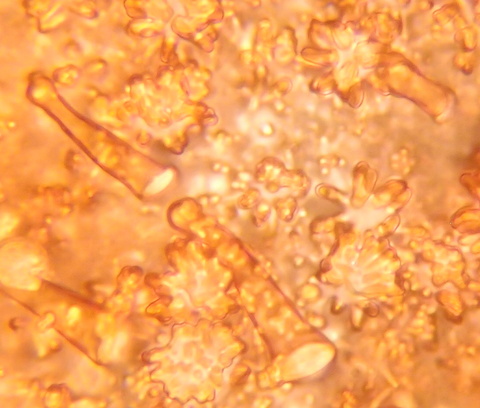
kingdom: Fungi
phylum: Basidiomycota
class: Agaricomycetes
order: Agaricales
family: Marasmiaceae
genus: Marasmius
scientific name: Marasmius epiphylloides
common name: vedbend-bruskhat
